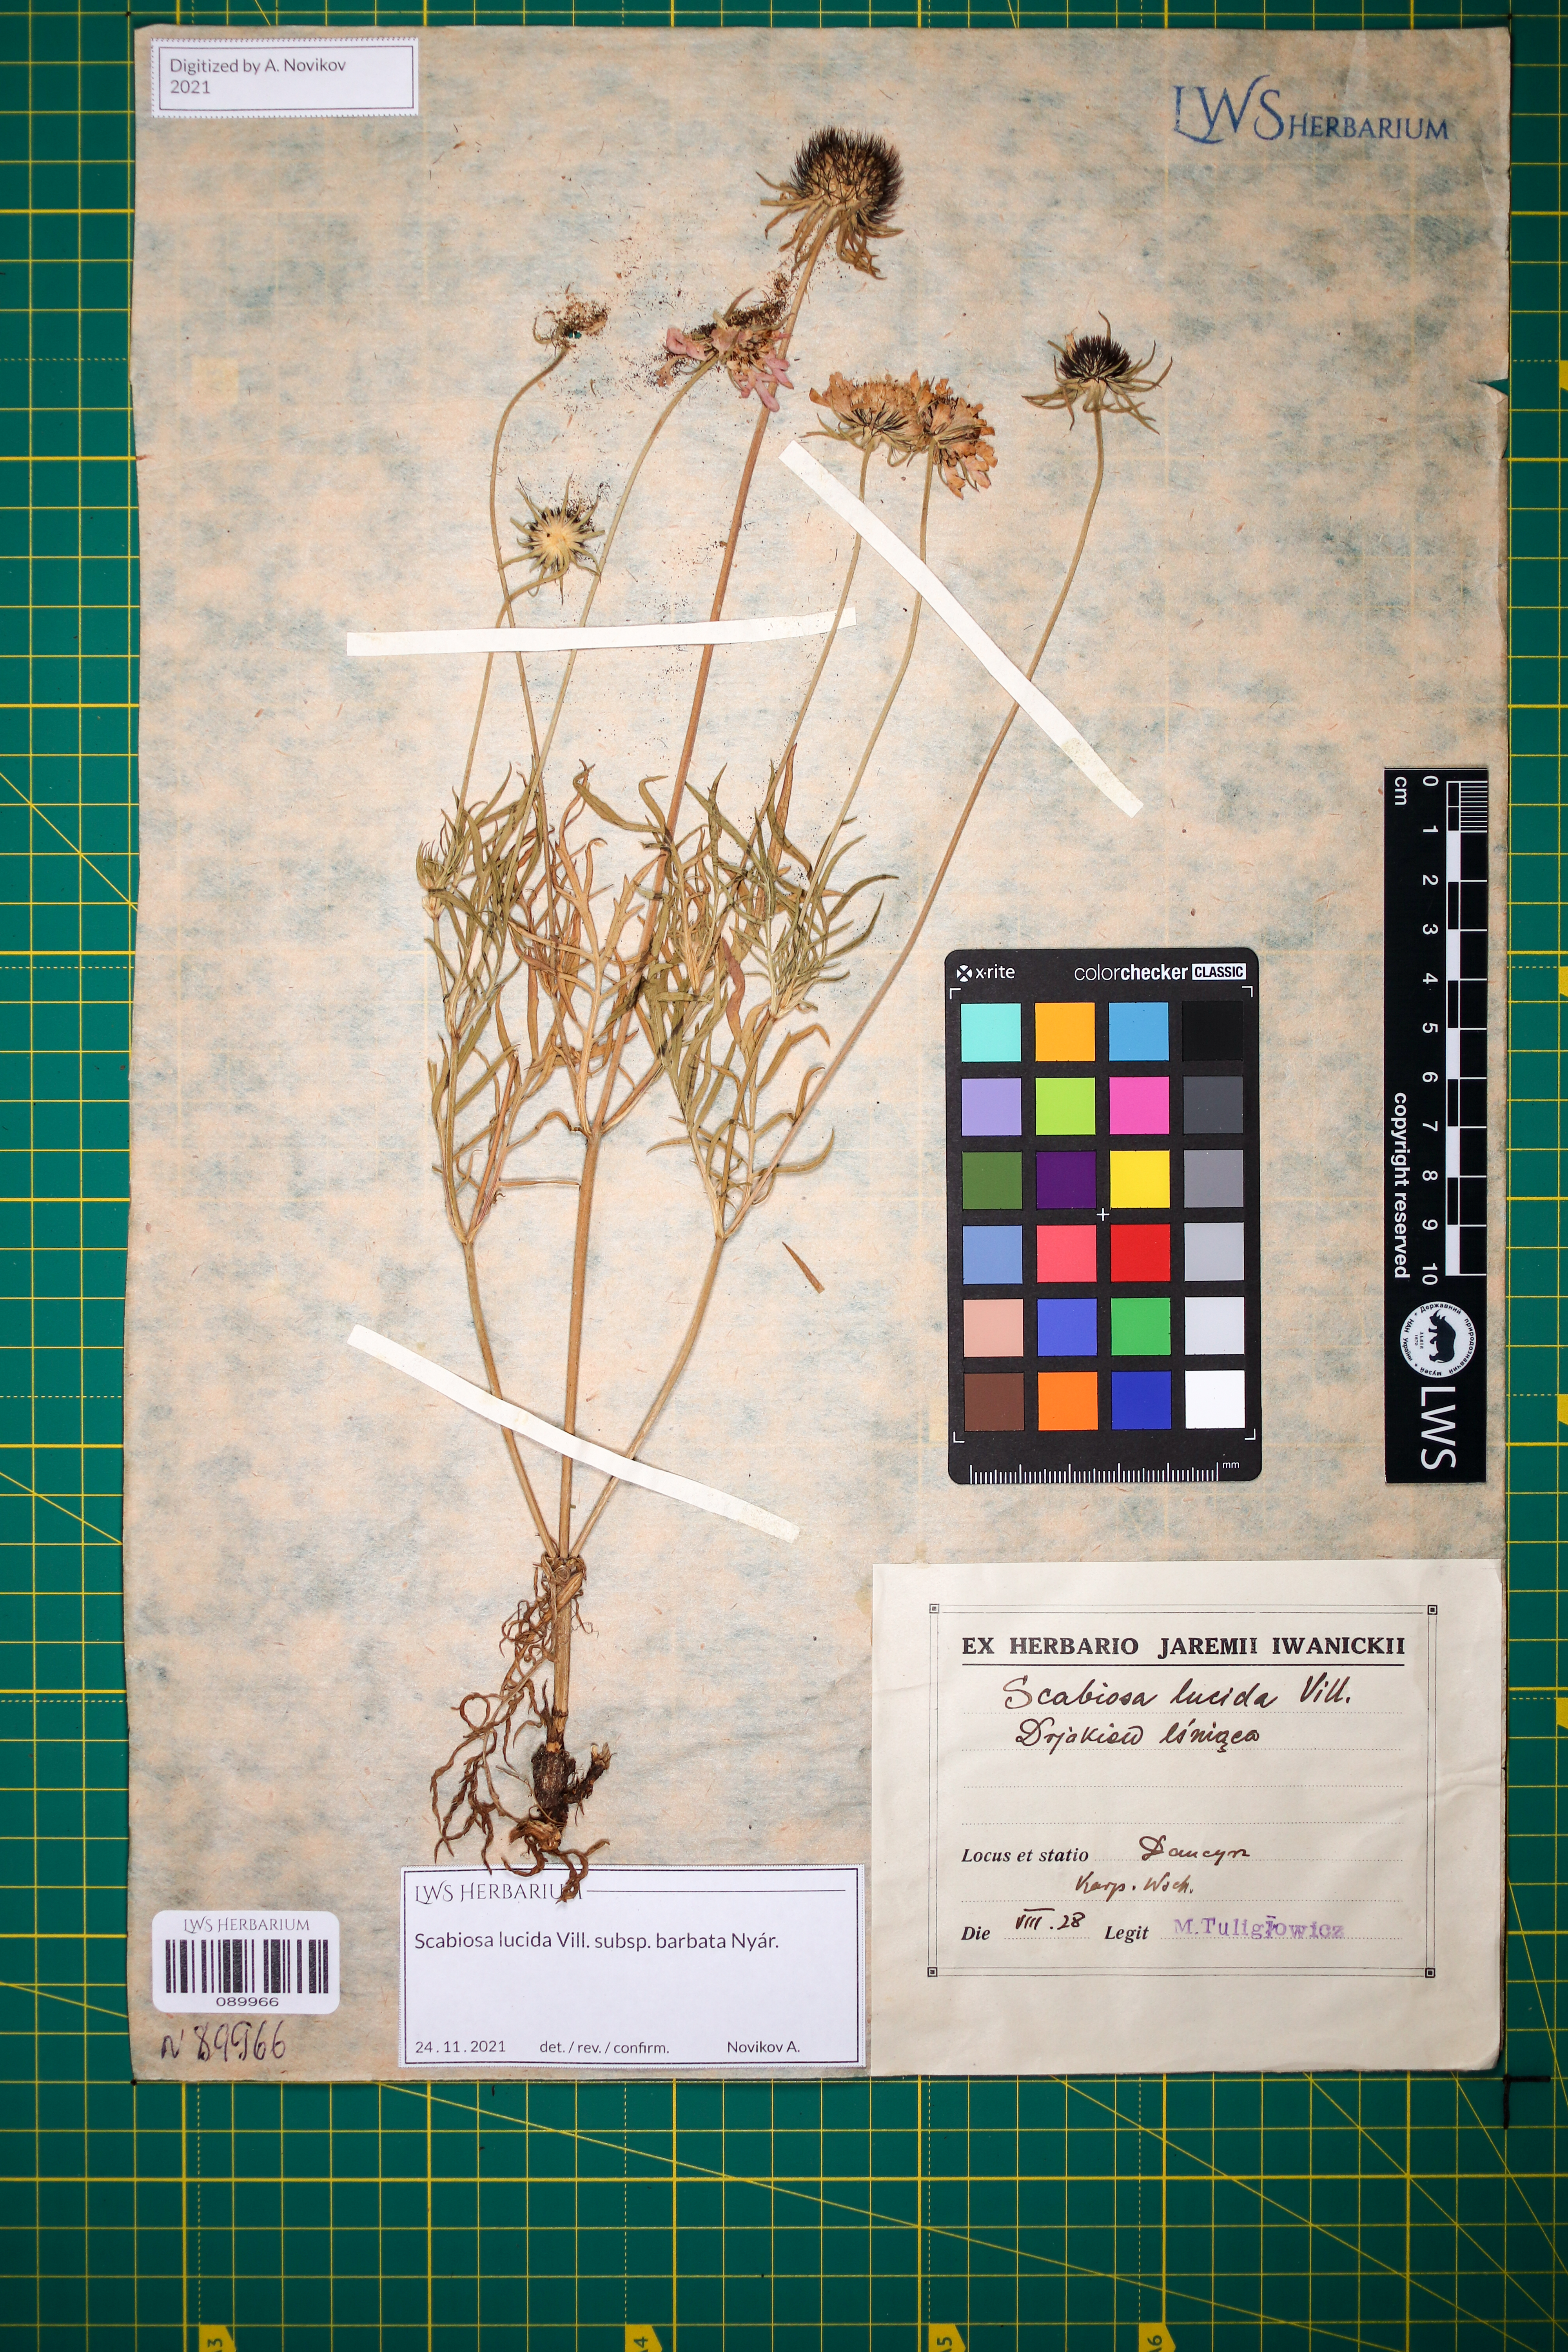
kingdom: Plantae
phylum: Tracheophyta
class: Magnoliopsida
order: Dipsacales
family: Caprifoliaceae
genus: Scabiosa
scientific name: Scabiosa lucida
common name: Shining scabious
